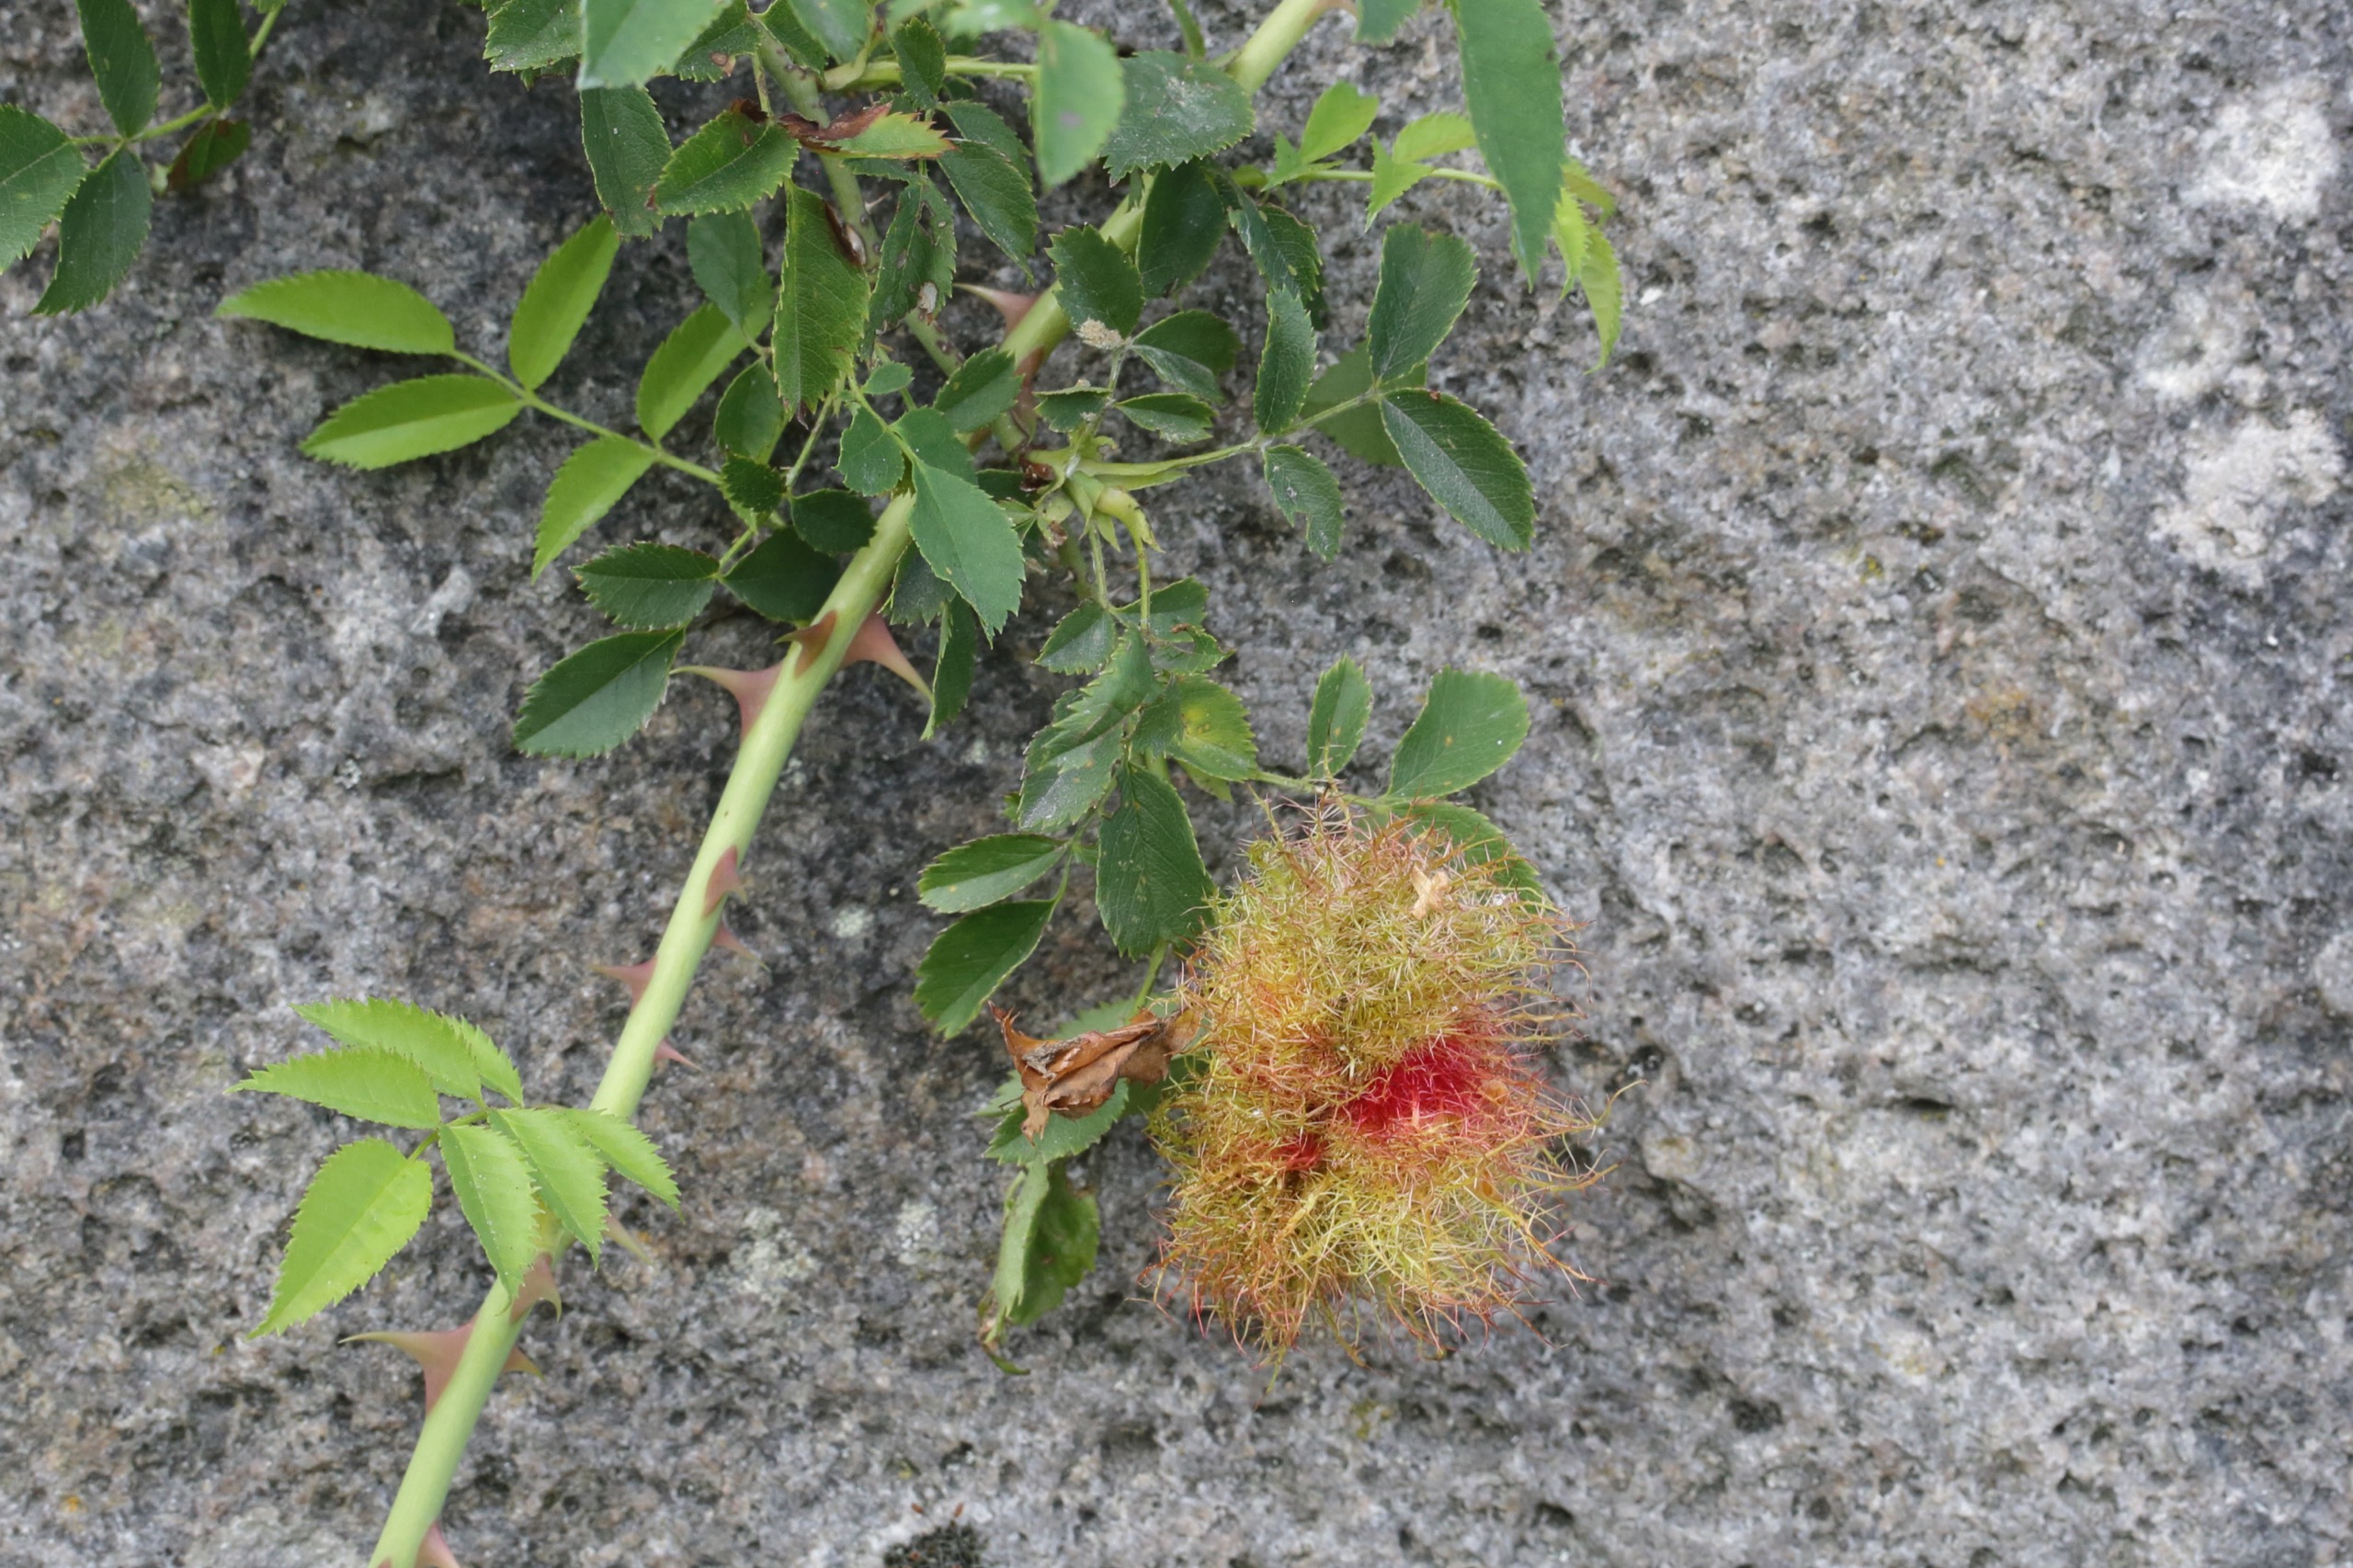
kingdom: Animalia
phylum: Arthropoda
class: Insecta
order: Hymenoptera
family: Cynipidae
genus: Diplolepis
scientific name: Diplolepis rosae
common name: Bedeguargalhveps
